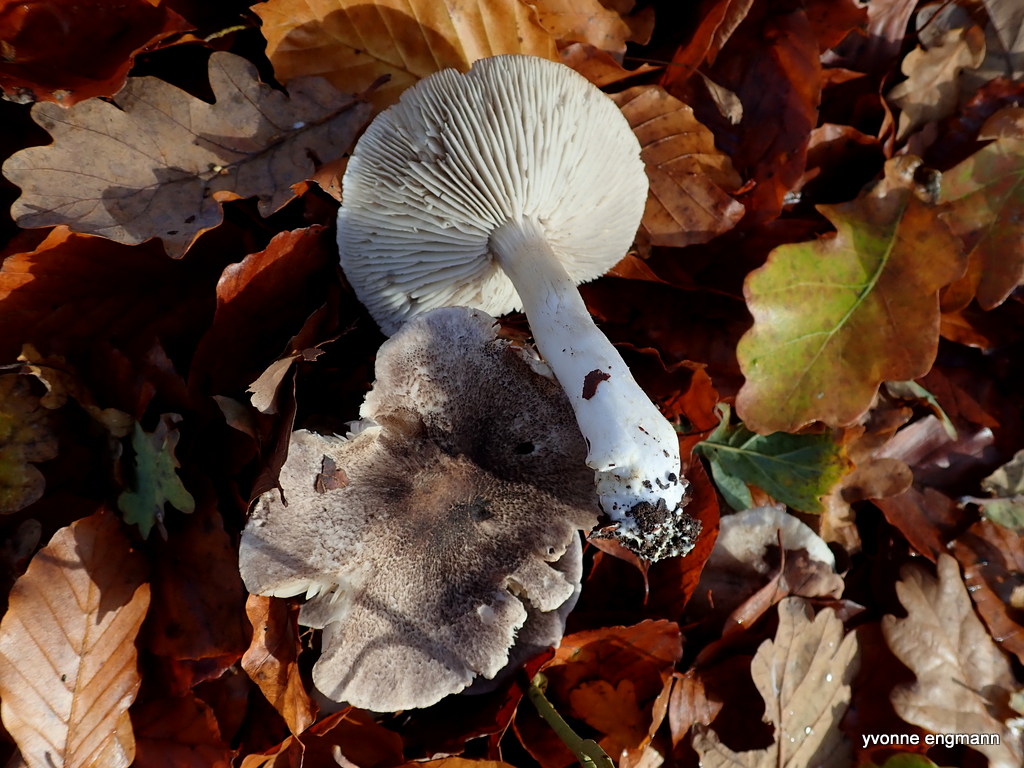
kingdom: Fungi
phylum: Basidiomycota
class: Agaricomycetes
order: Agaricales
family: Tricholomataceae
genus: Tricholoma
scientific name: Tricholoma scalpturatum
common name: gulplettet ridderhat
